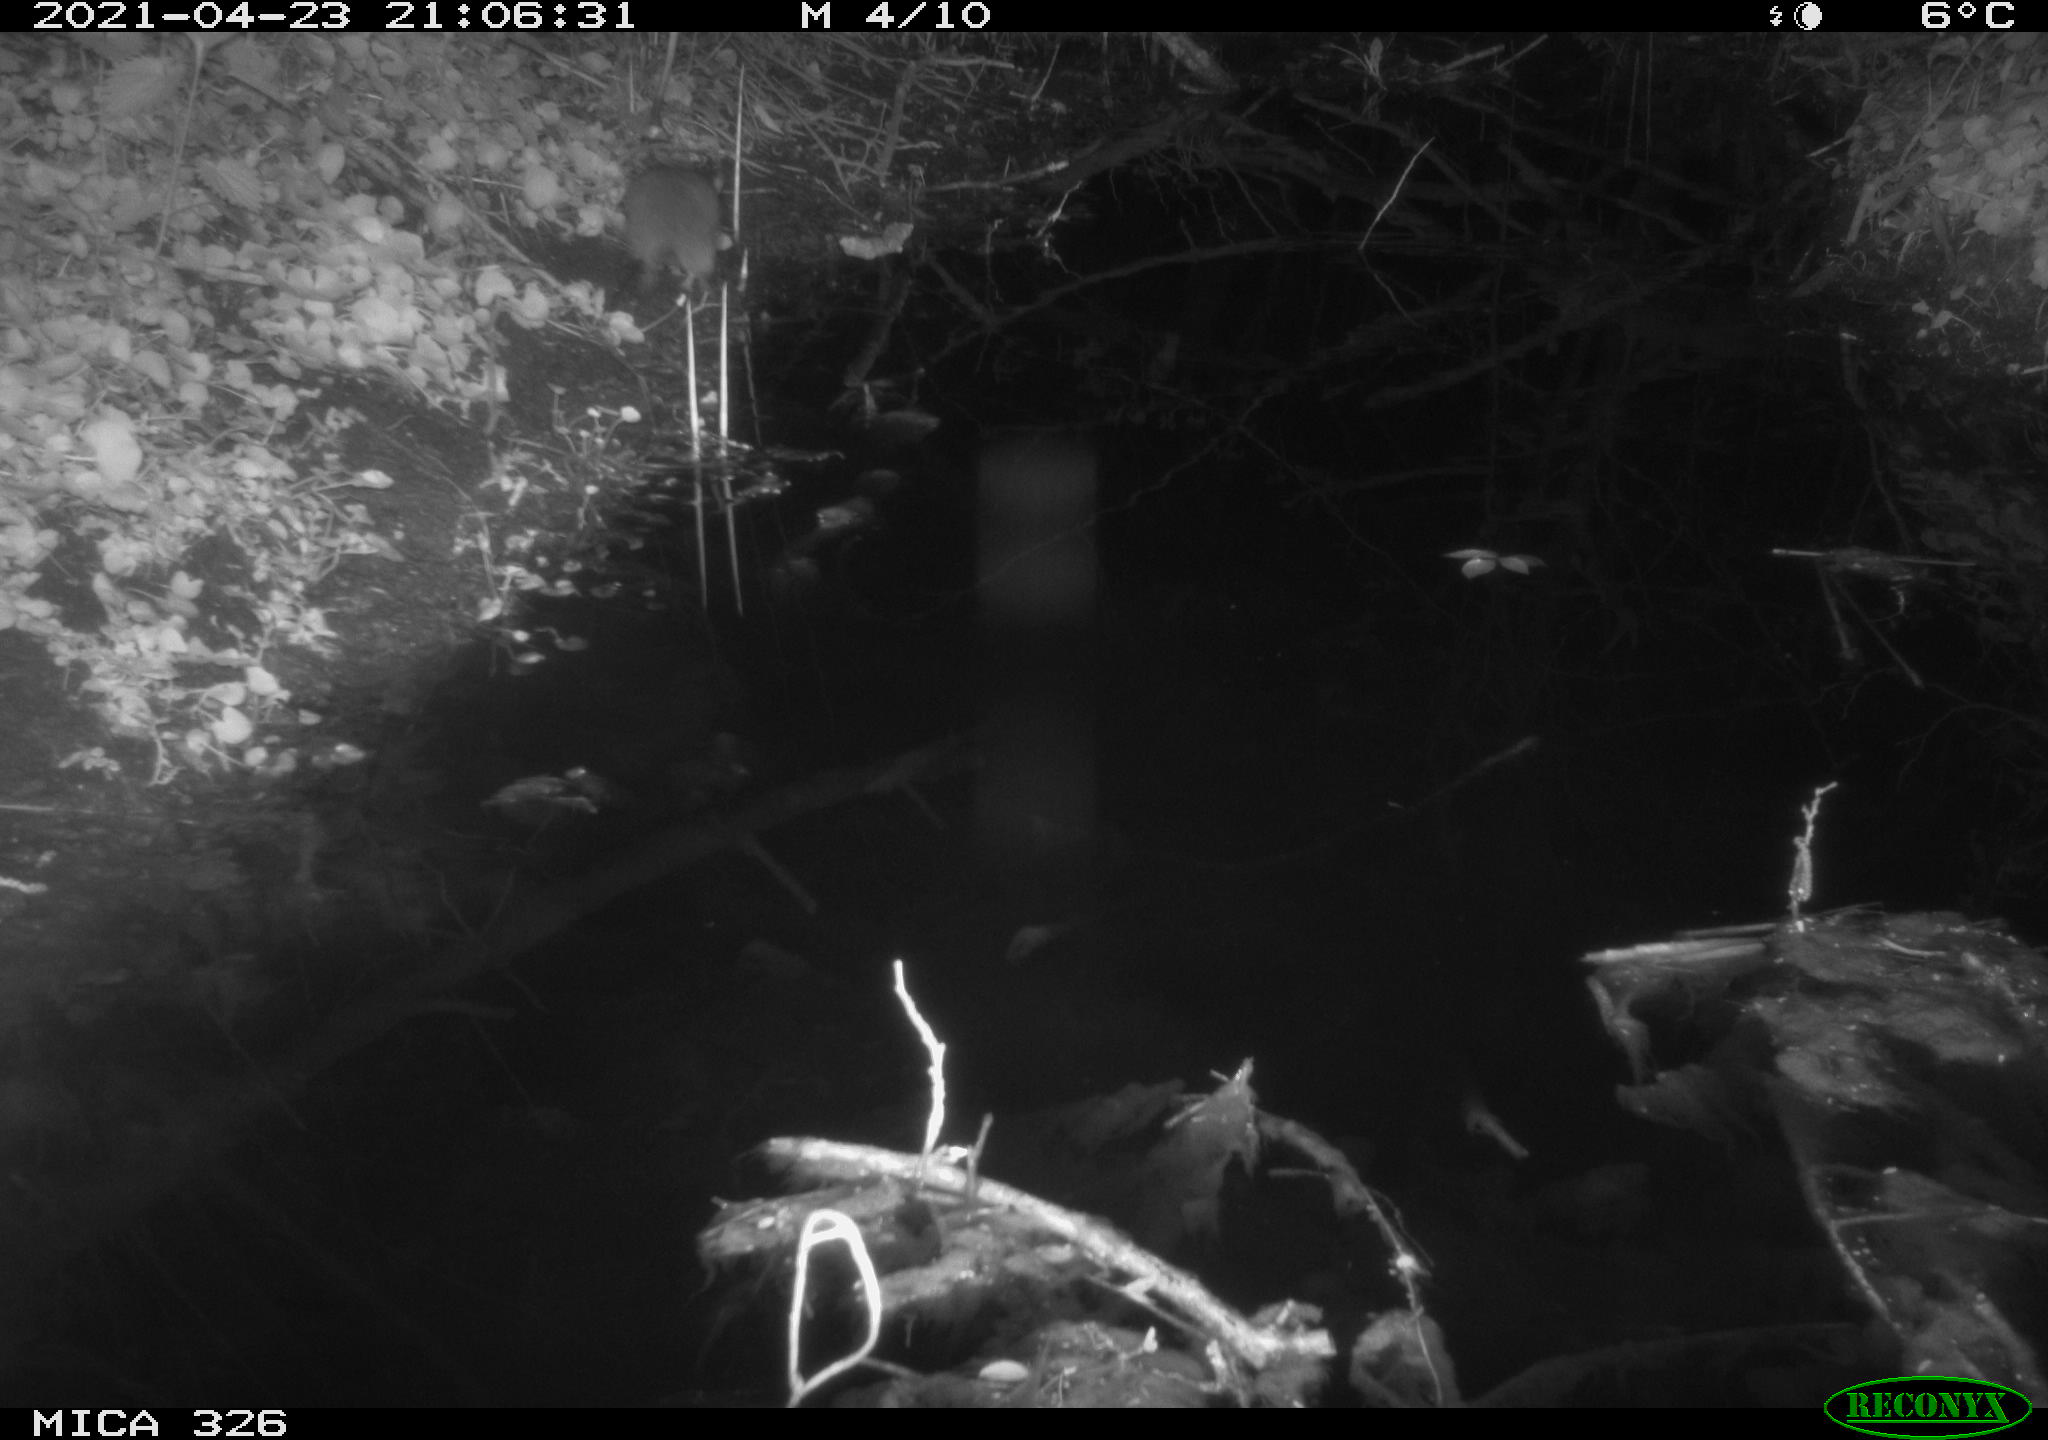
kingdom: Animalia
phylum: Chordata
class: Mammalia
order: Rodentia
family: Muridae
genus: Rattus
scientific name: Rattus norvegicus
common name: Brown rat
